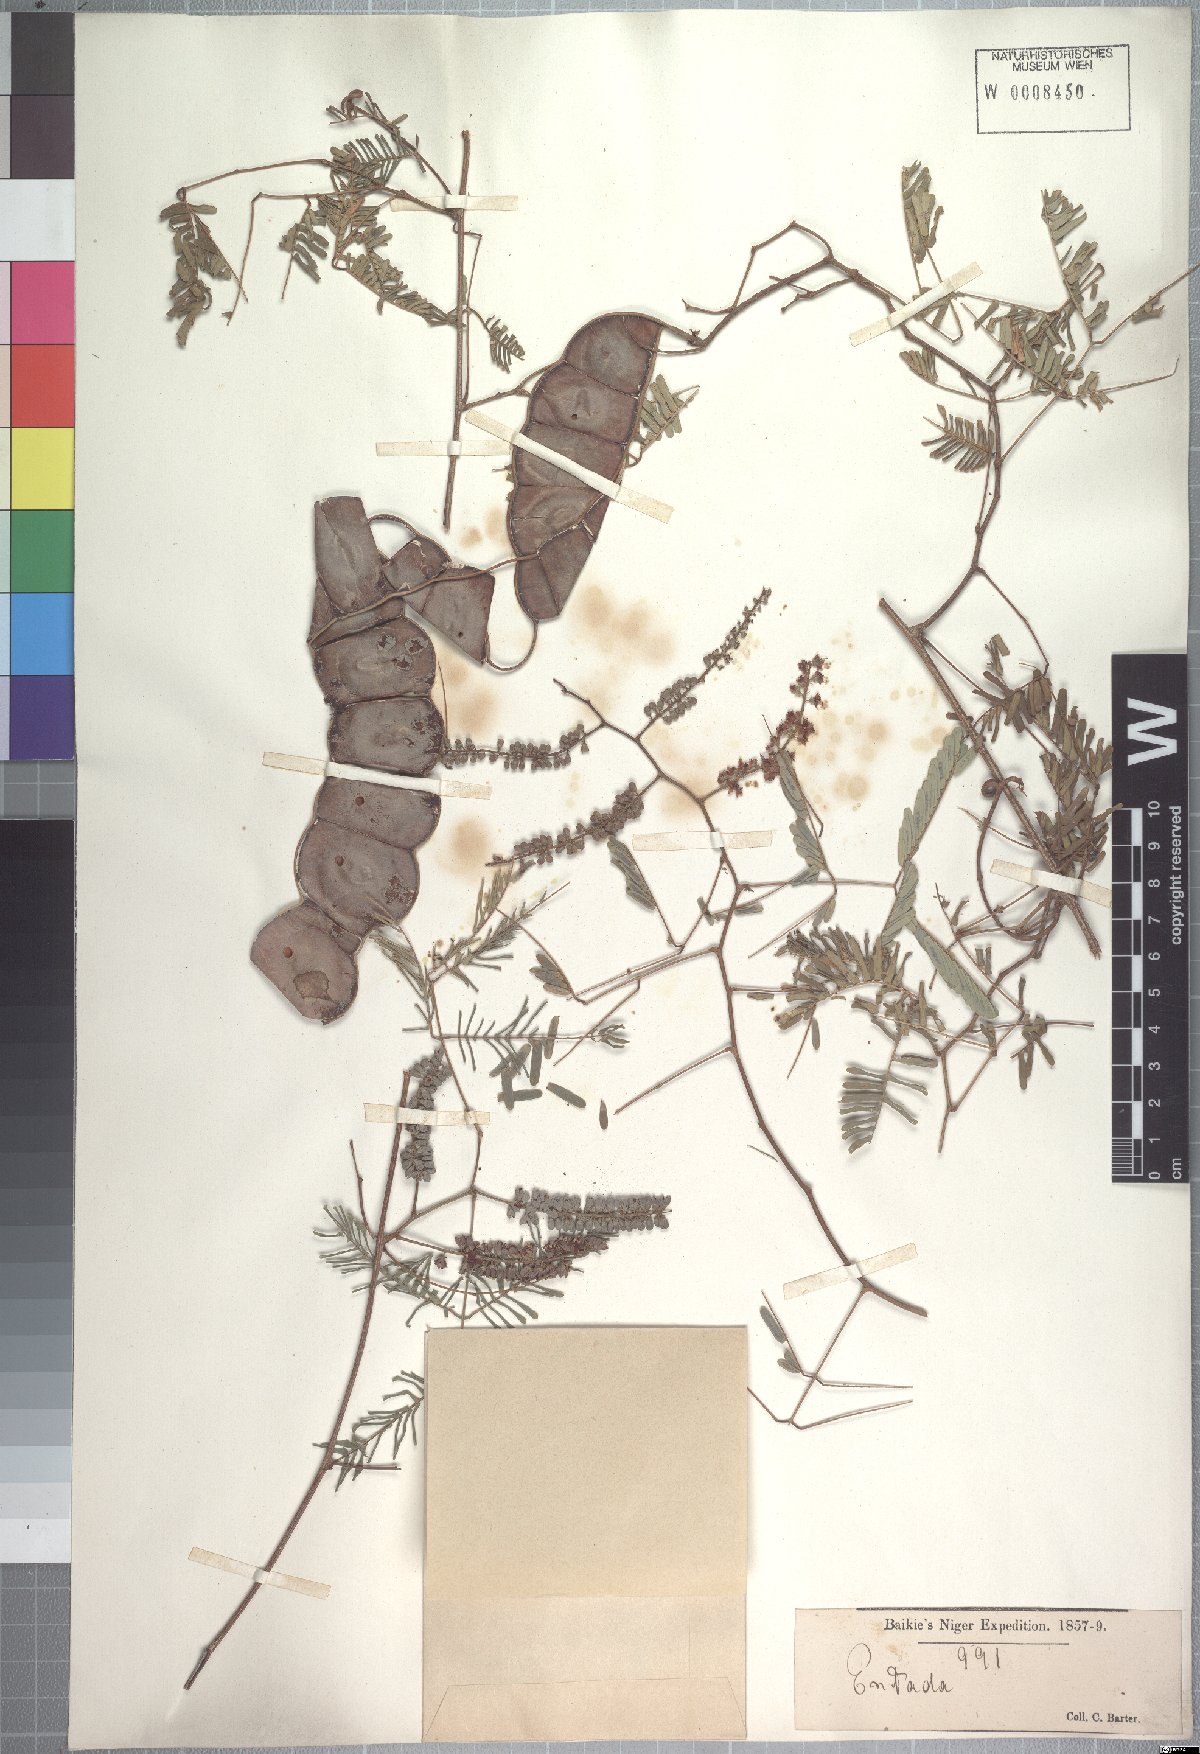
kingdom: Plantae
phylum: Tracheophyta
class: Magnoliopsida
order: Fabales
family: Fabaceae
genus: Entada
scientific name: Entada wahlbergii
